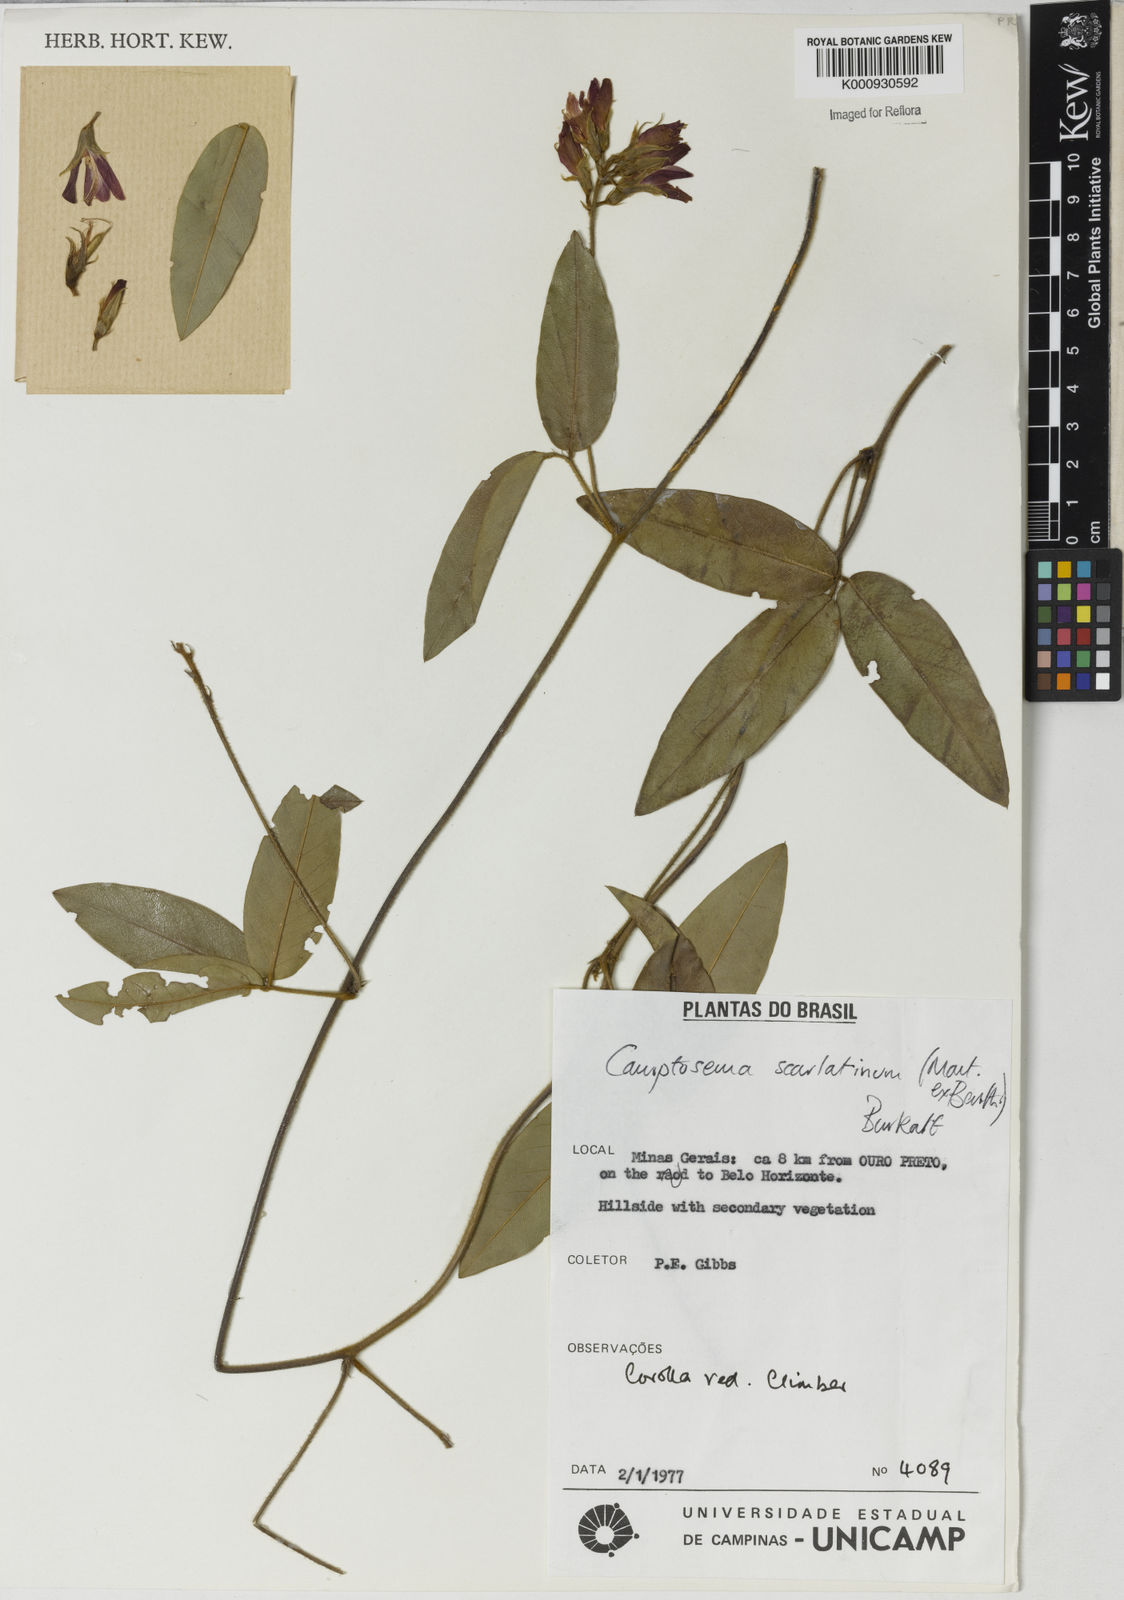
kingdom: Plantae
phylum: Tracheophyta
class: Magnoliopsida
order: Fabales
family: Fabaceae
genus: Betencourtia
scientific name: Betencourtia scarlatina
